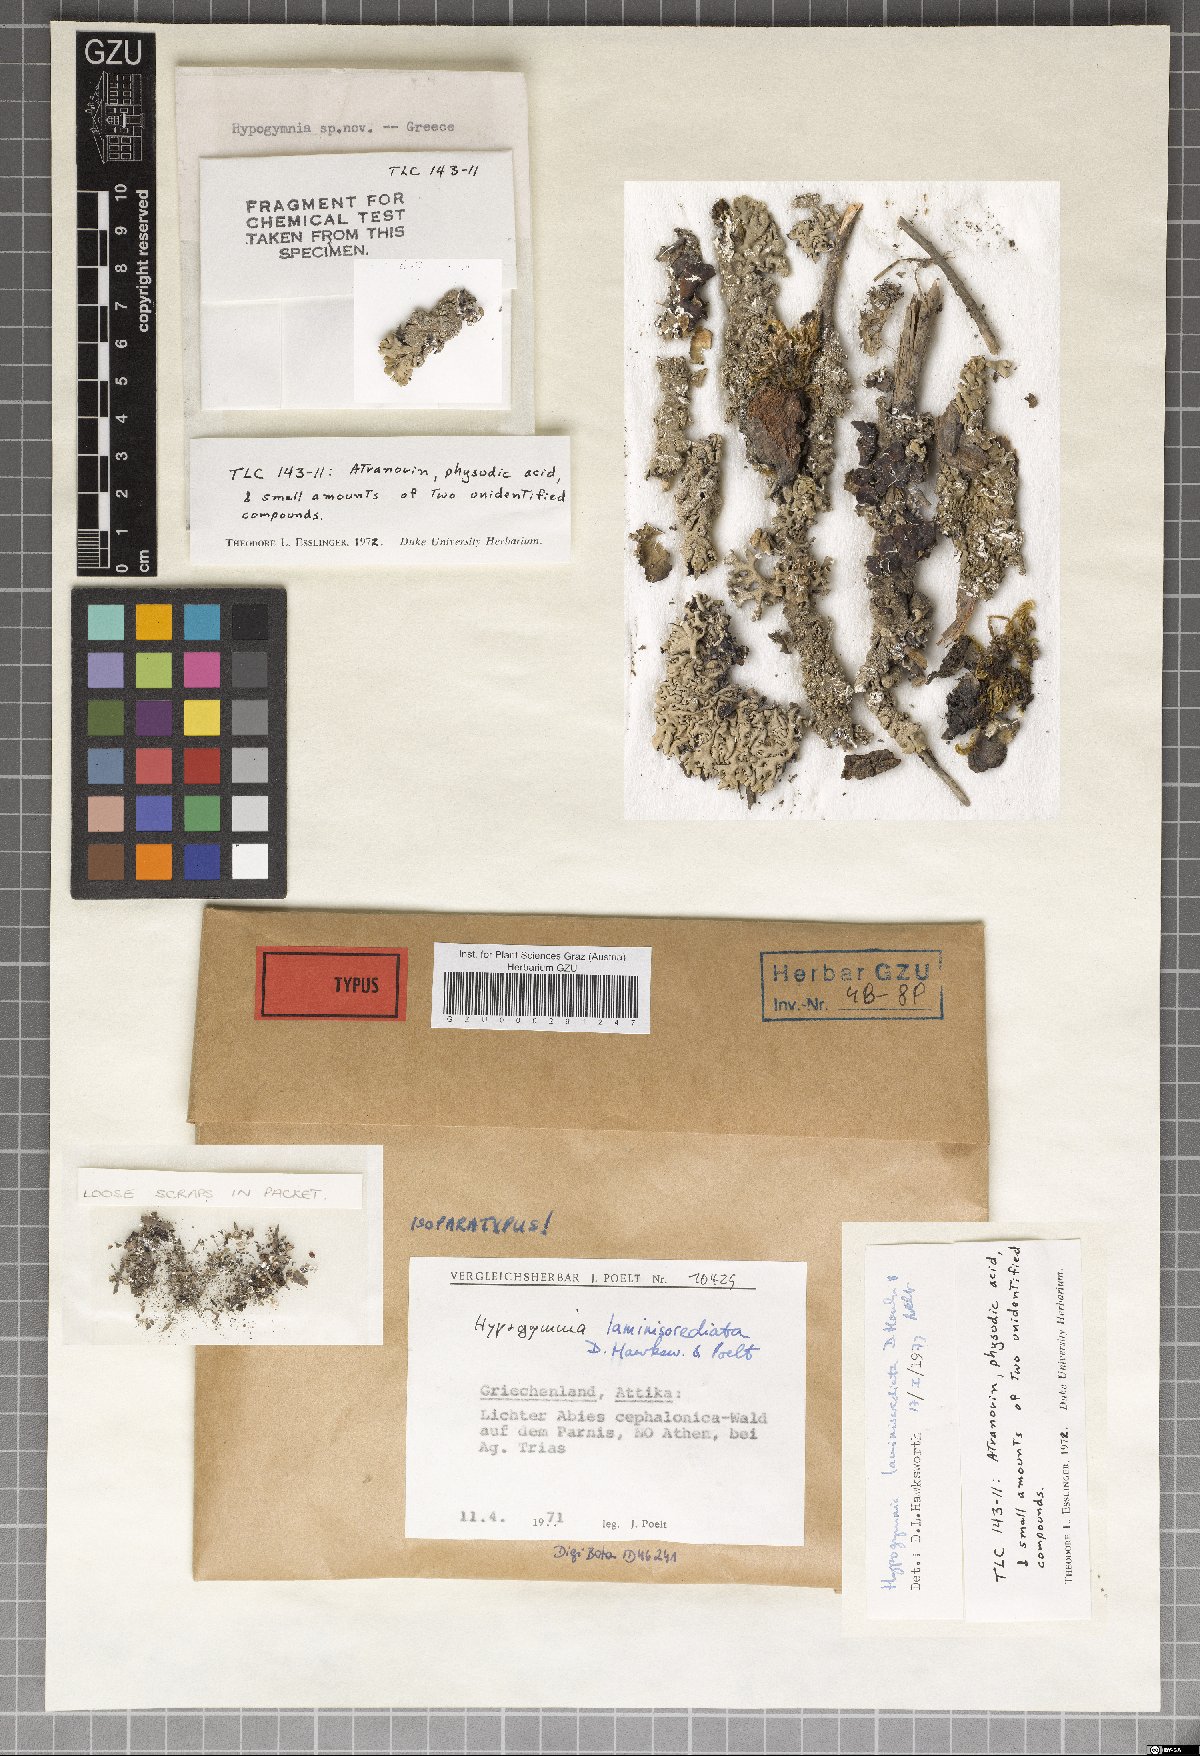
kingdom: Fungi
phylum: Ascomycota
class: Lecanoromycetes
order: Lecanorales
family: Parmeliaceae
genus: Hypogymnia
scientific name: Hypogymnia laminisorediata
